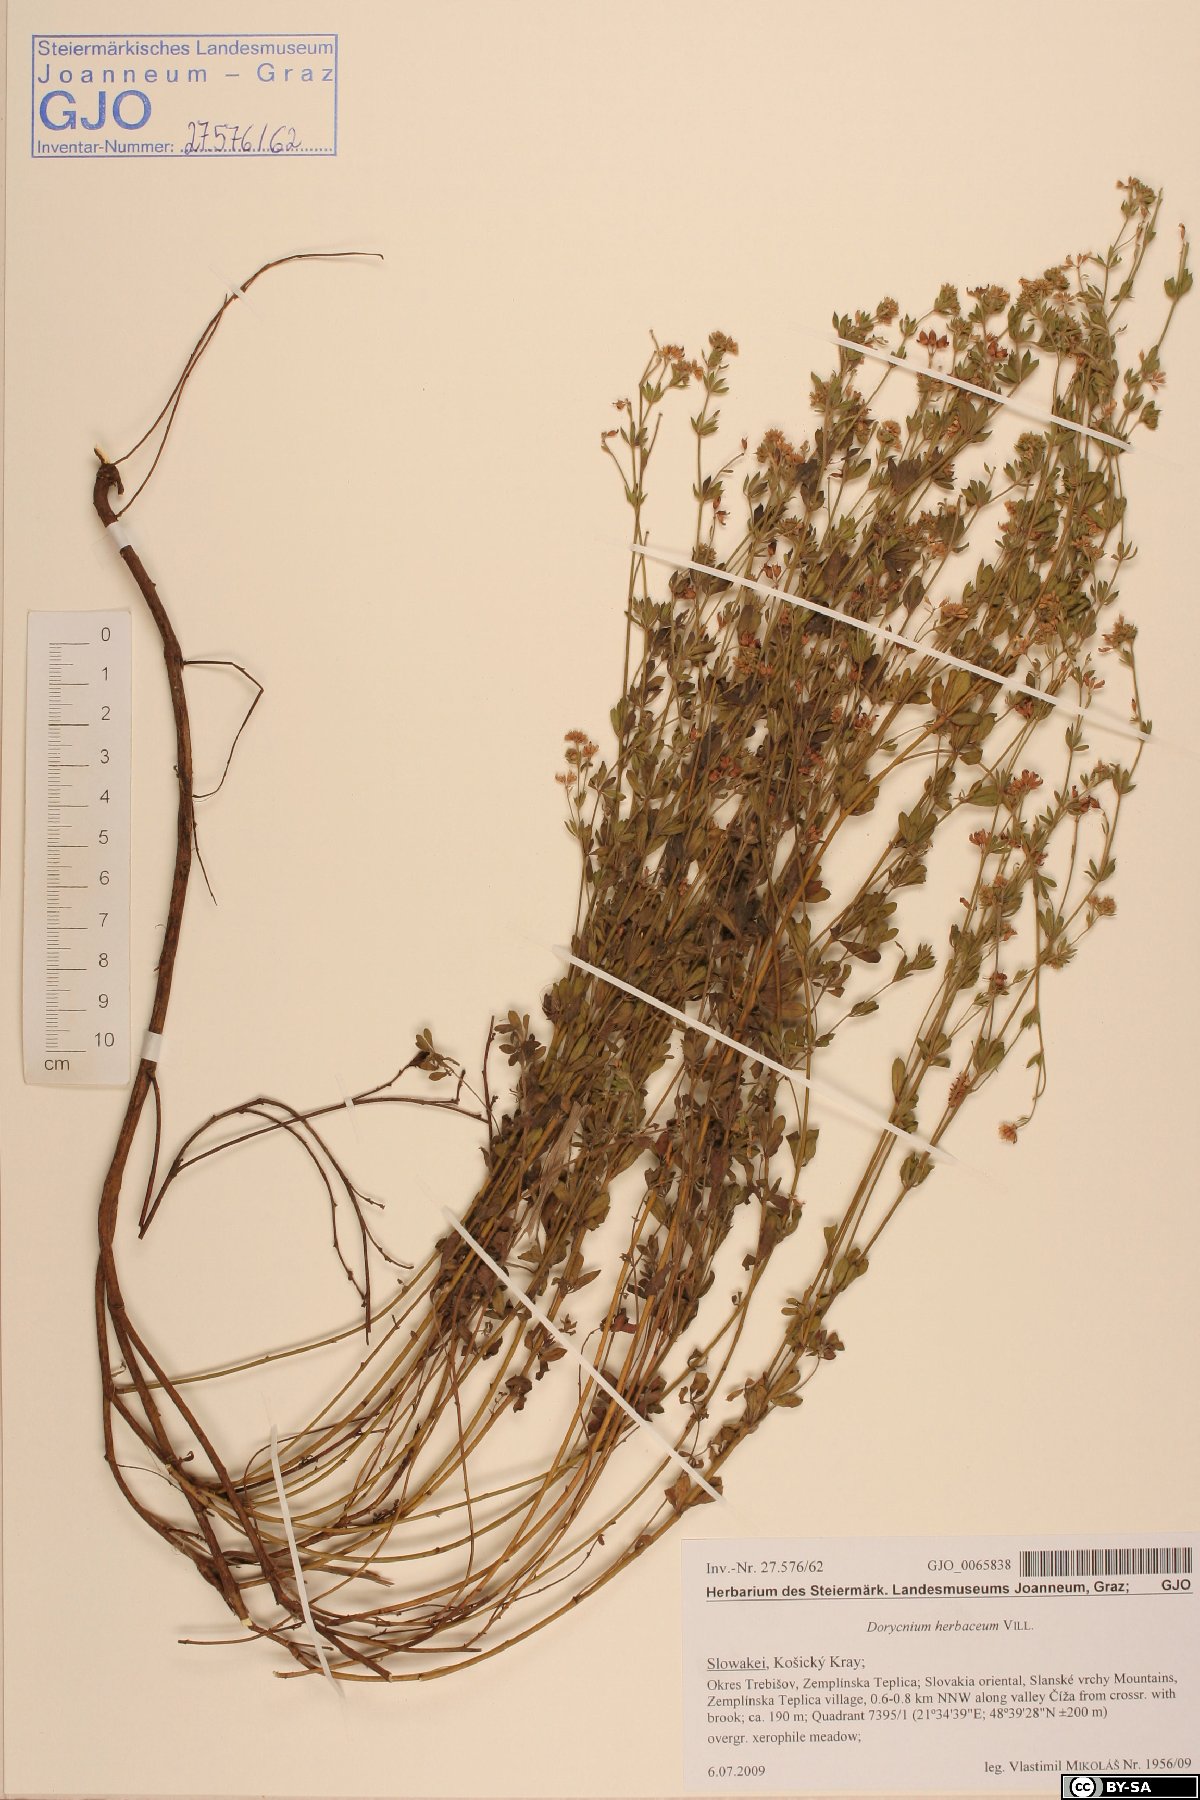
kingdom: Plantae
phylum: Tracheophyta
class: Magnoliopsida
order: Fabales
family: Fabaceae
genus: Lotus
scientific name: Lotus herbaceus
